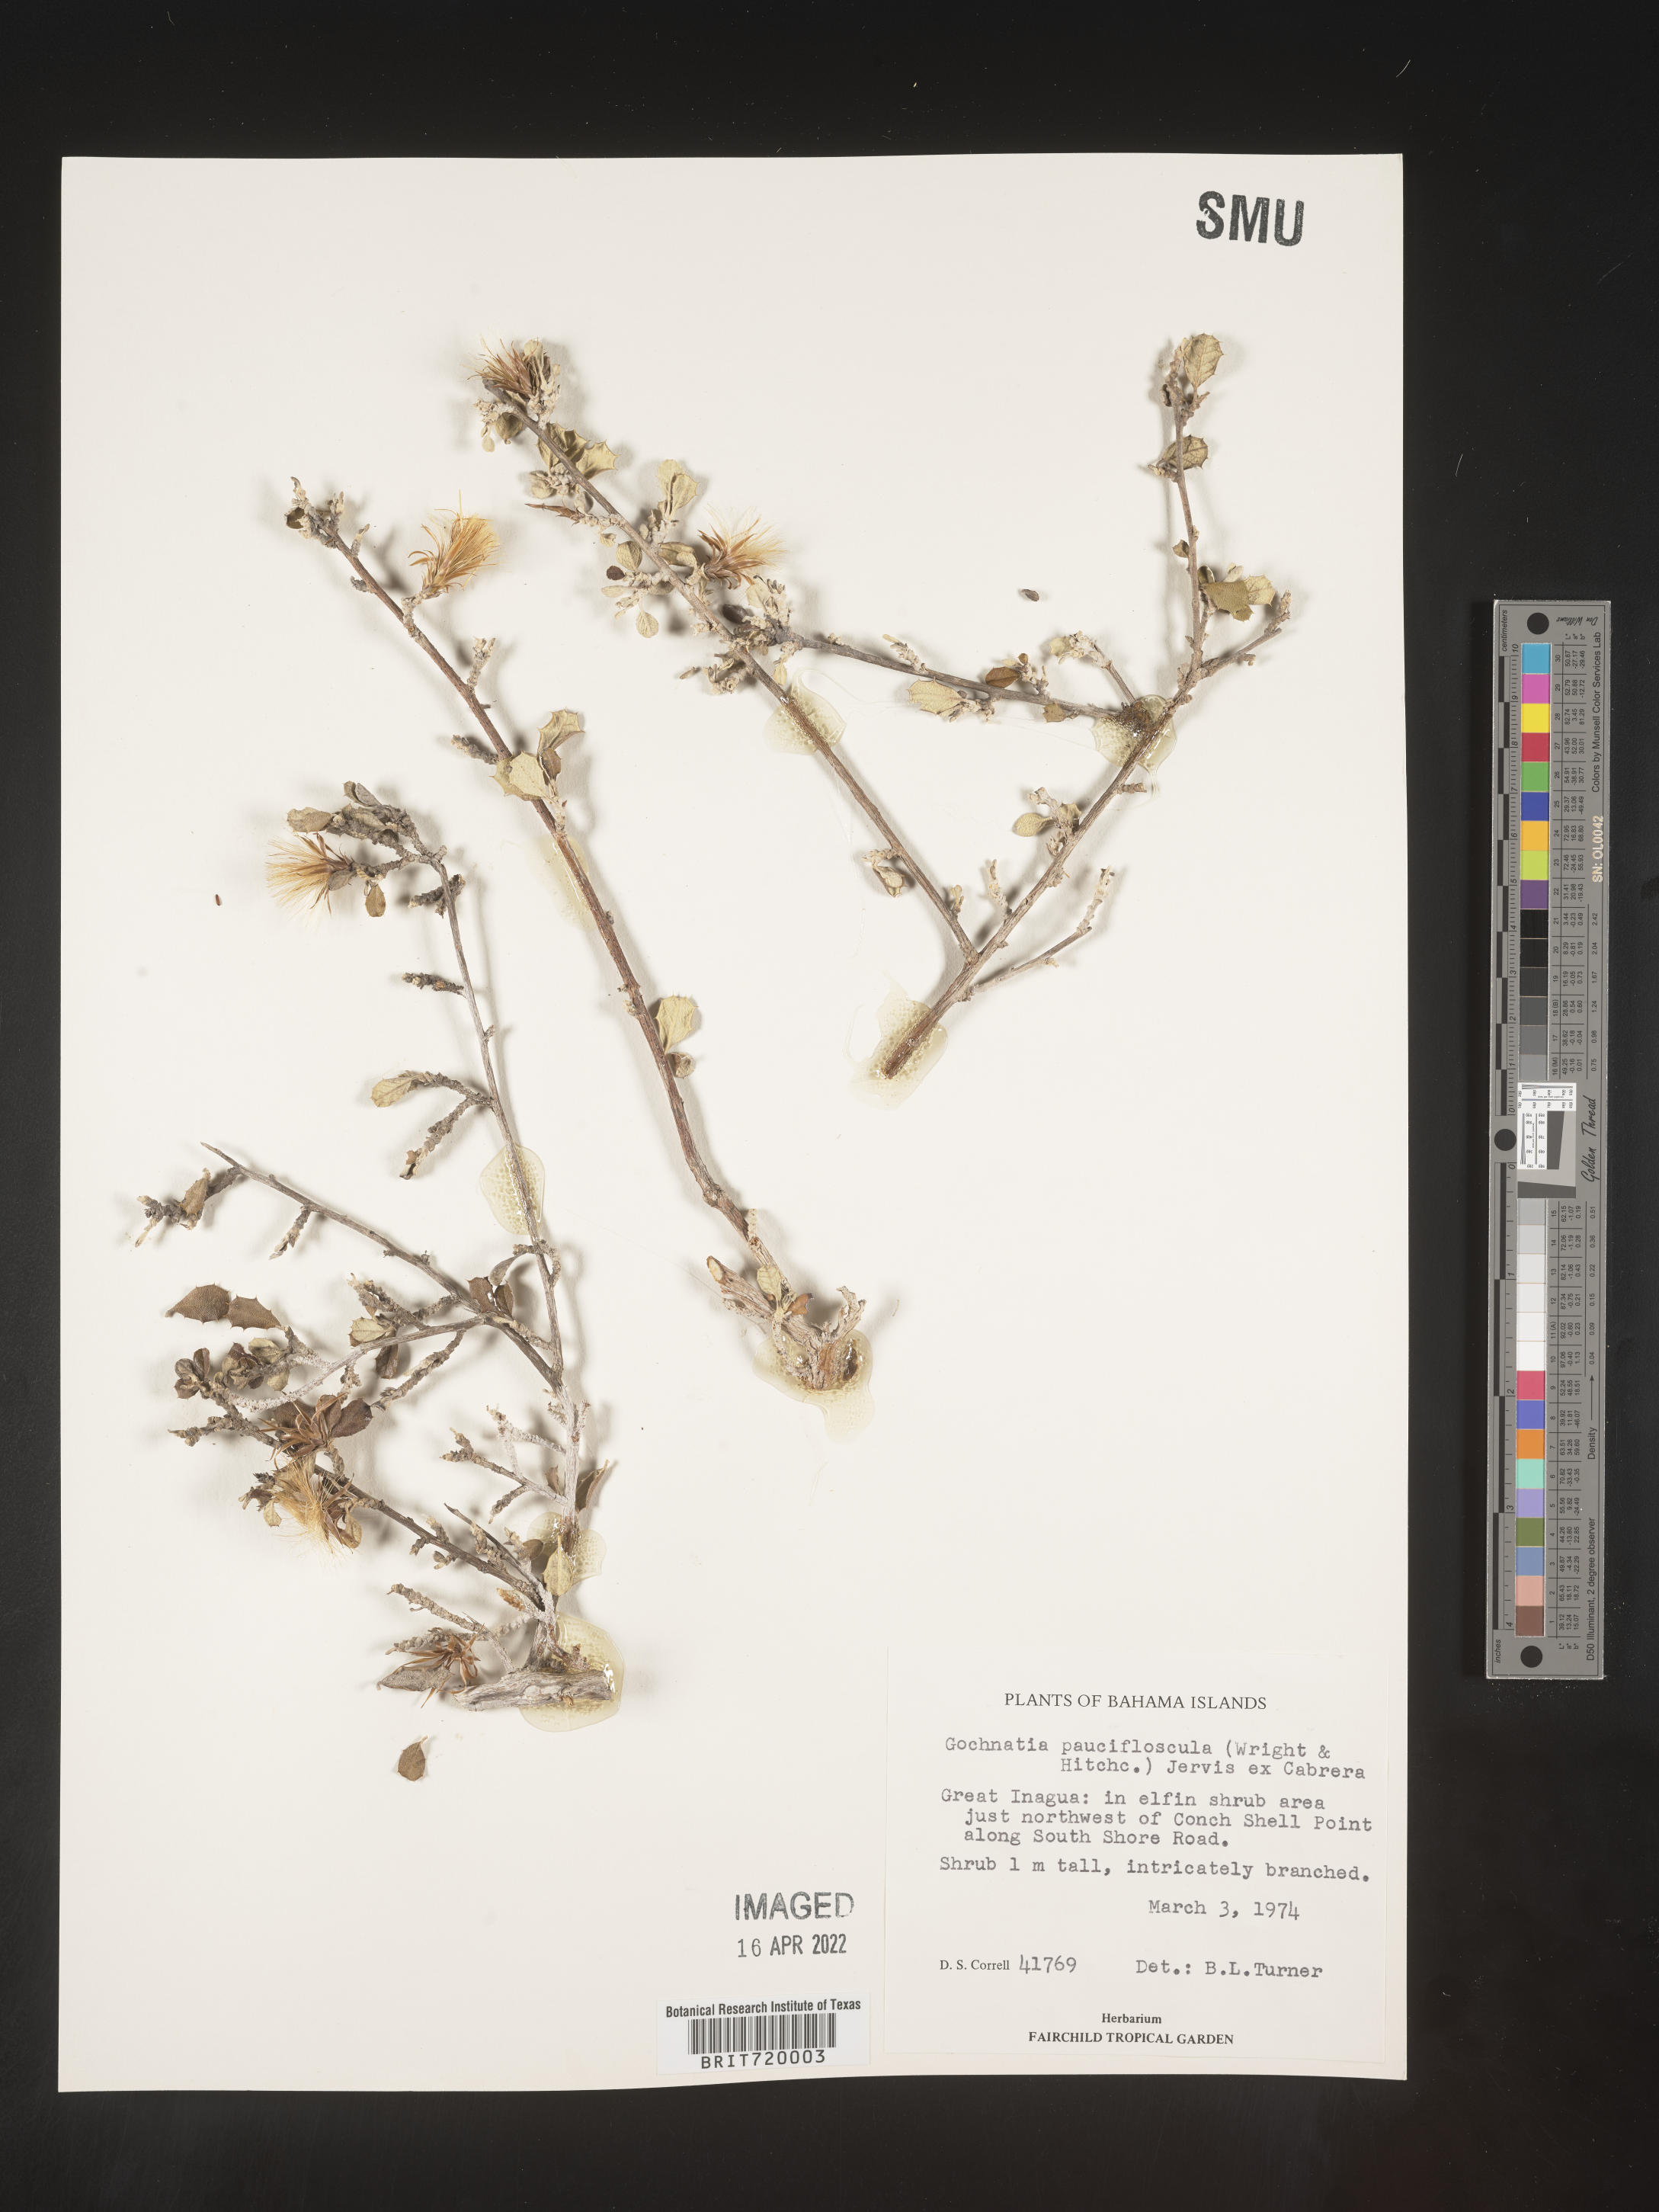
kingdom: Plantae
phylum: Tracheophyta
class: Magnoliopsida
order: Asterales
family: Asteraceae
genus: Gochnatia
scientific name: Gochnatia
